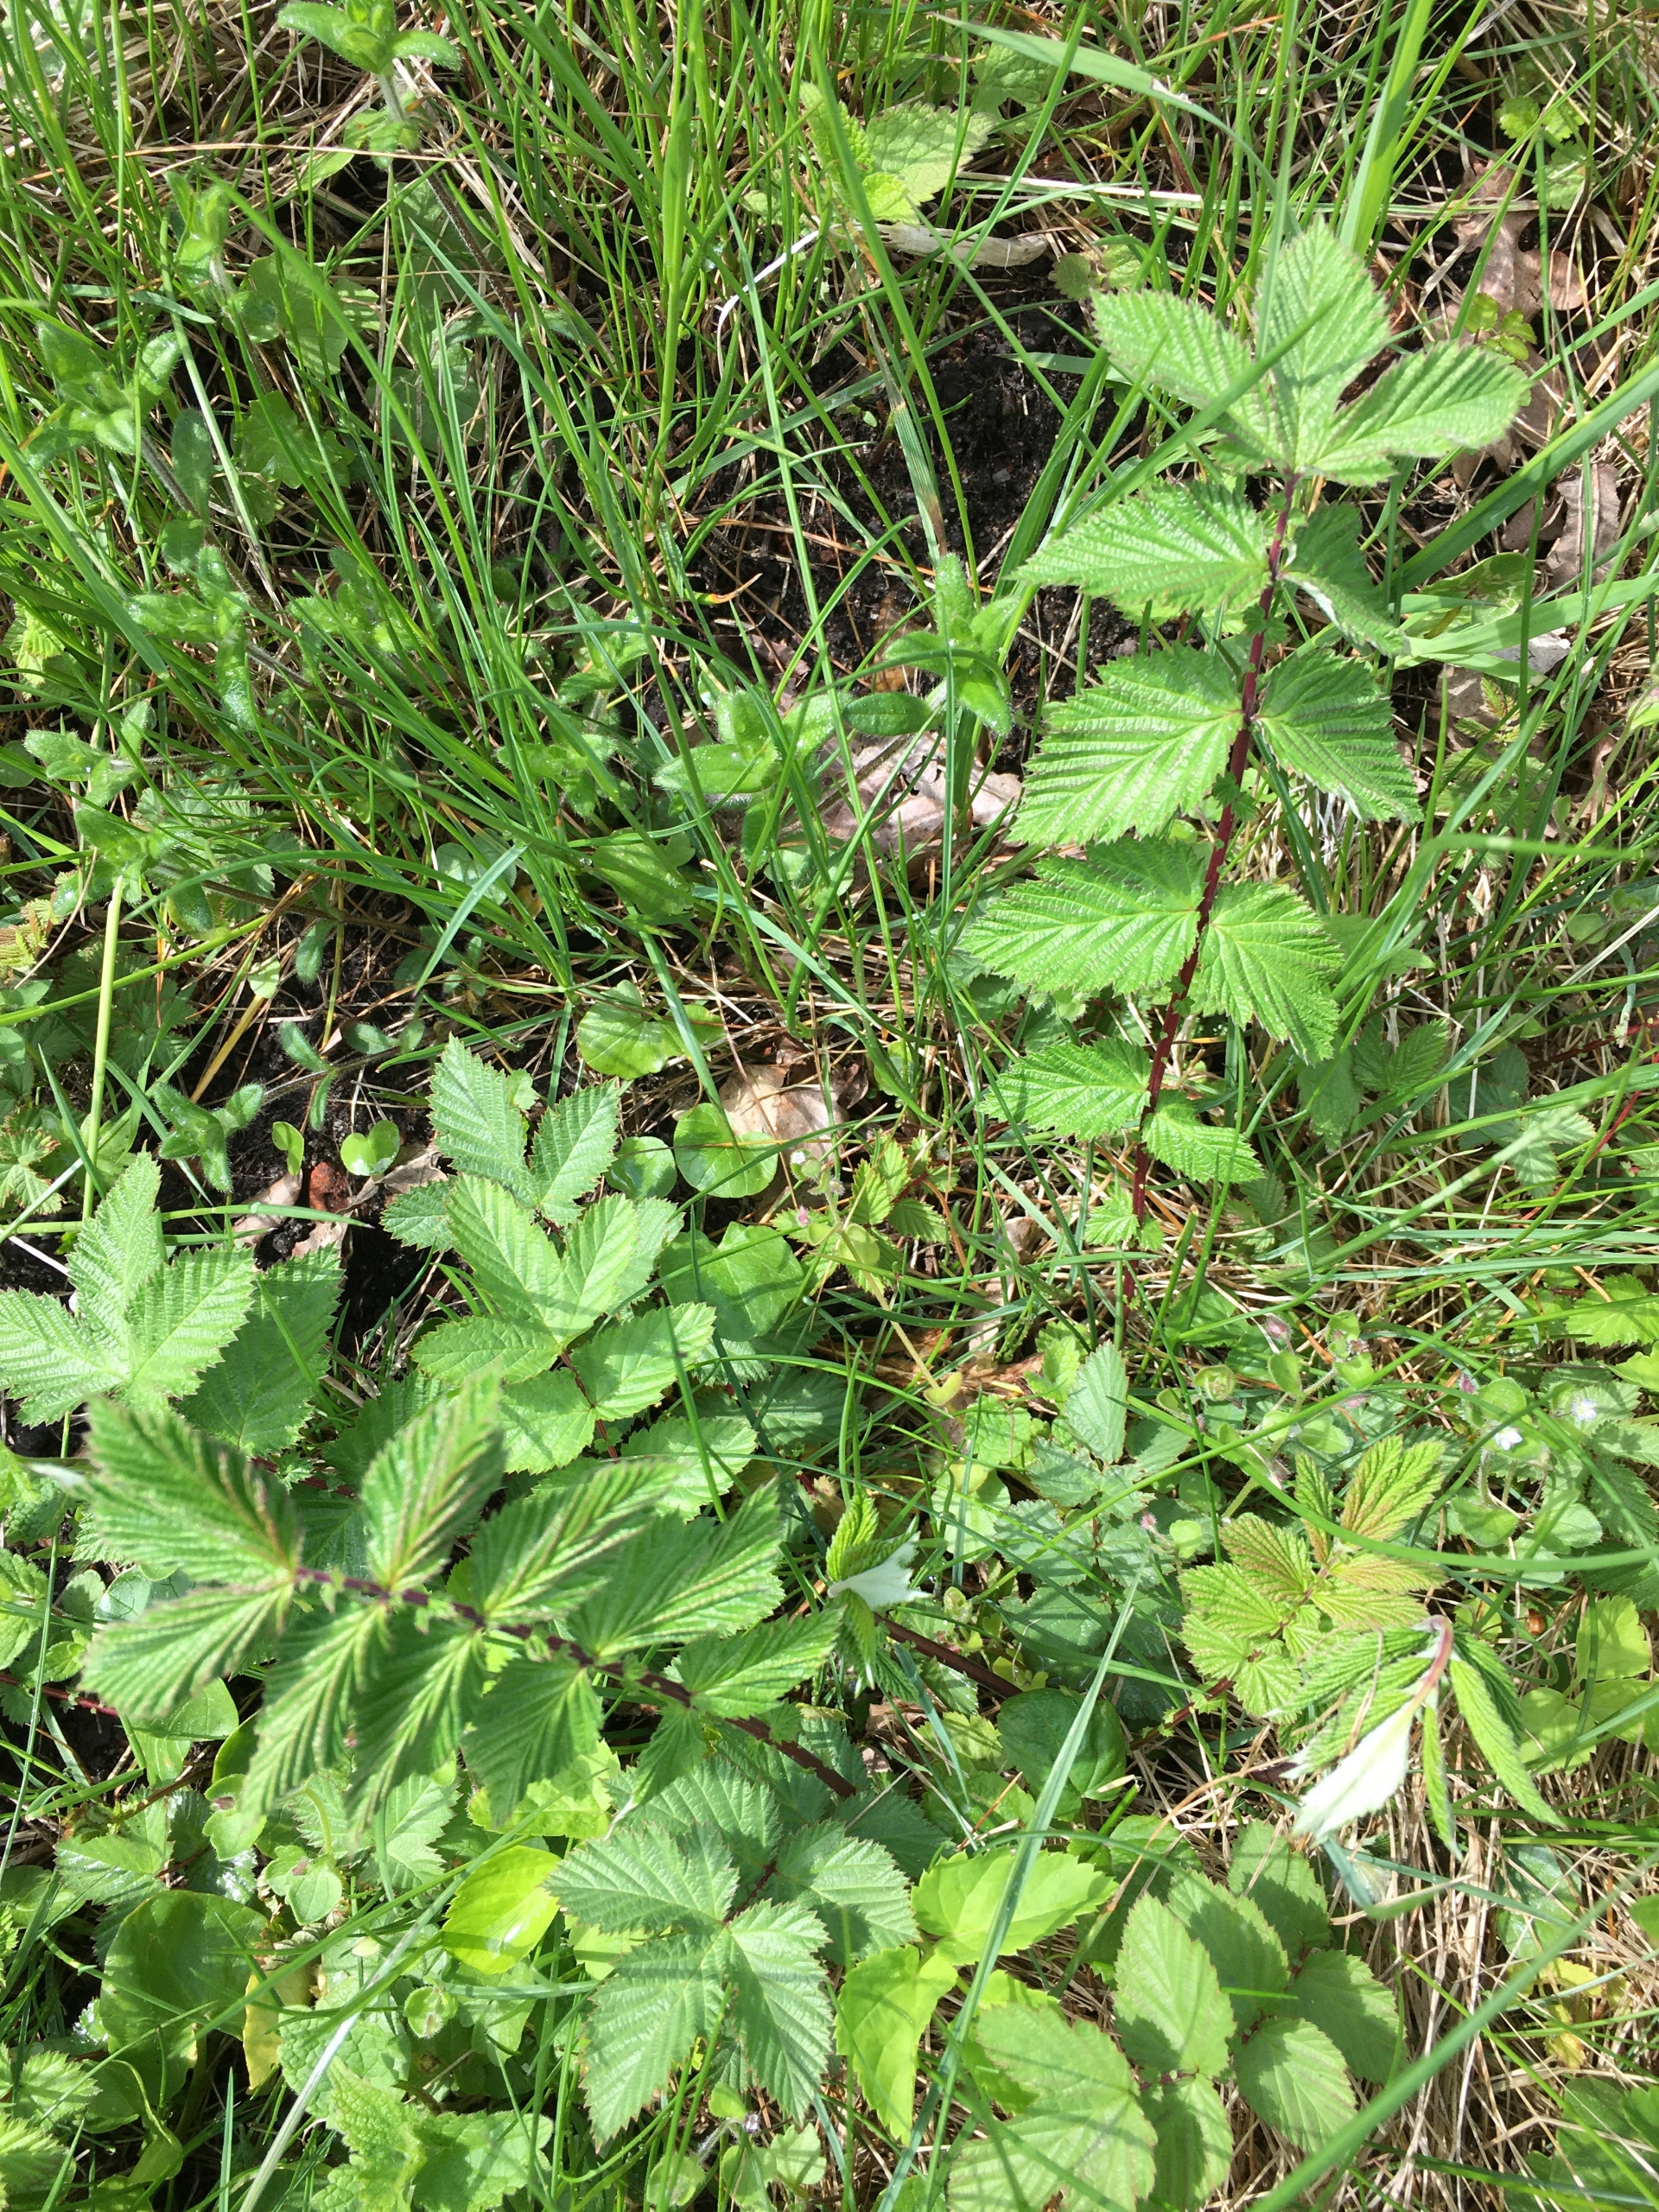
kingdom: Plantae
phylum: Tracheophyta
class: Magnoliopsida
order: Rosales
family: Rosaceae
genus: Filipendula
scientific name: Filipendula ulmaria
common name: Almindelig mjødurt
